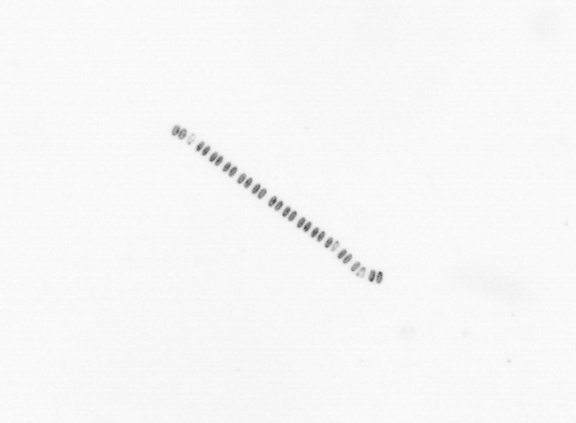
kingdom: Chromista
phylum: Ochrophyta
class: Bacillariophyceae
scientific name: Bacillariophyceae
